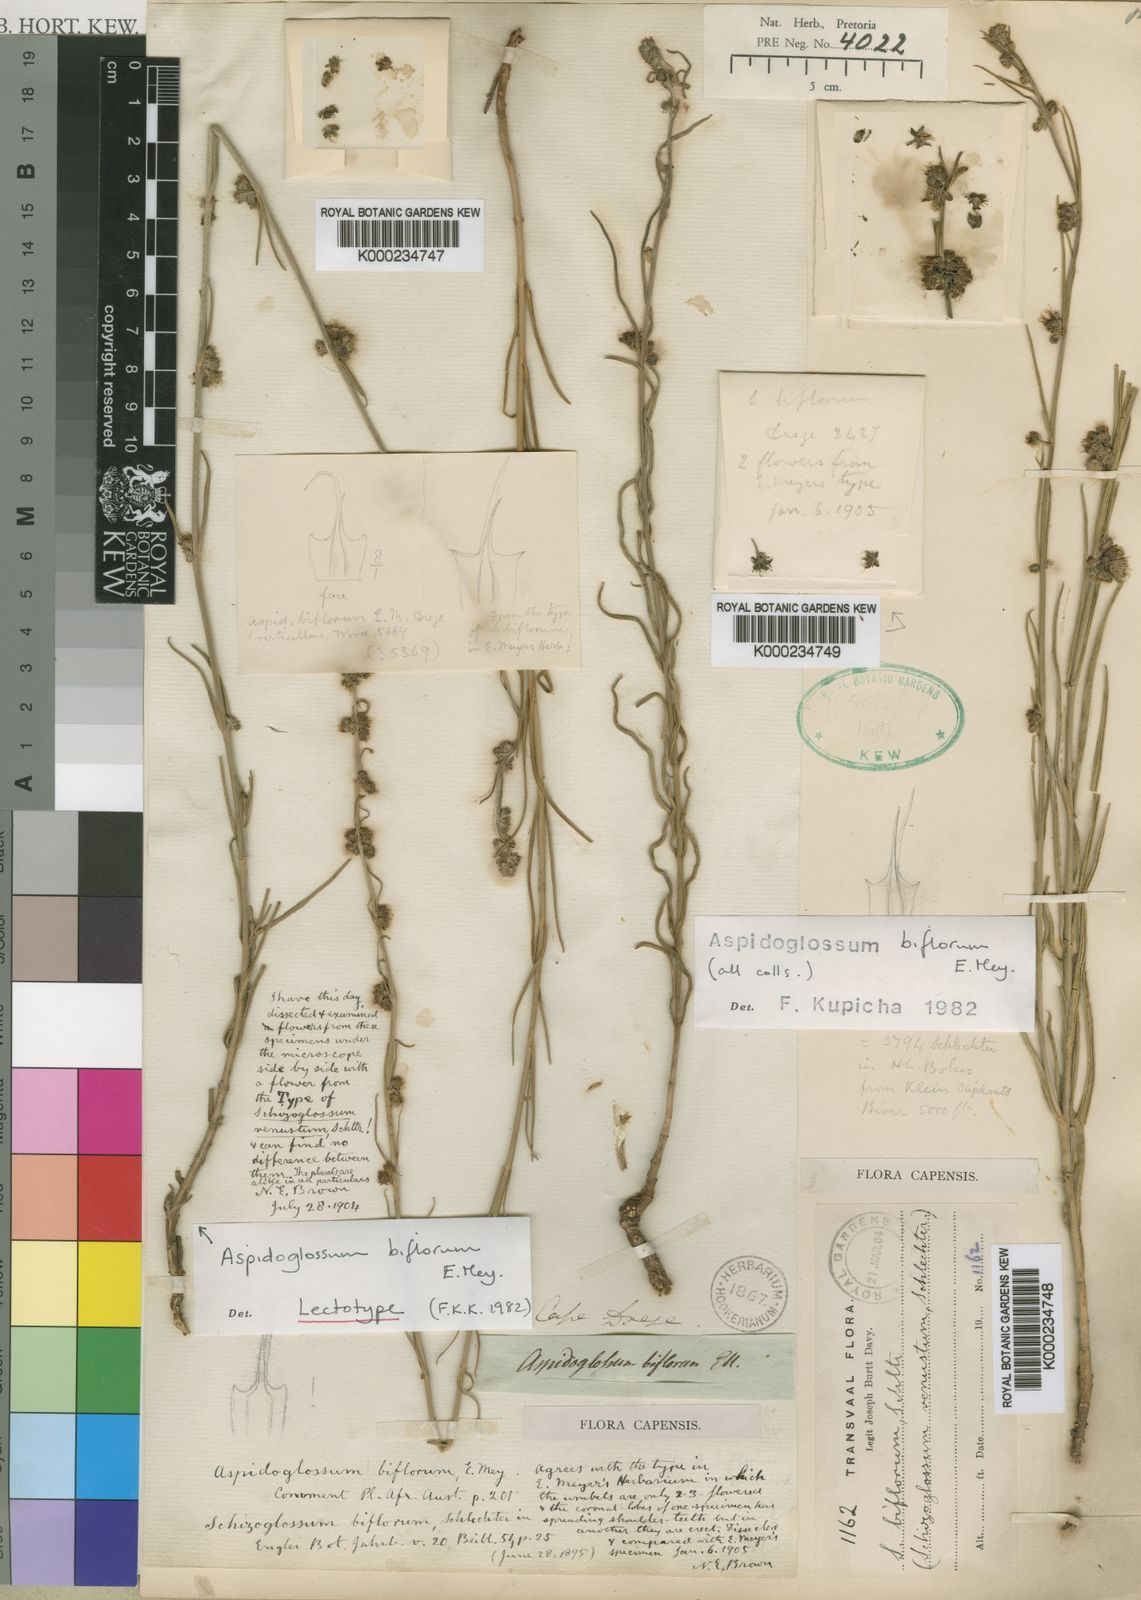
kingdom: Plantae
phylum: Tracheophyta
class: Magnoliopsida
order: Gentianales
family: Apocynaceae
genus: Aspidoglossum
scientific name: Aspidoglossum biflorum
